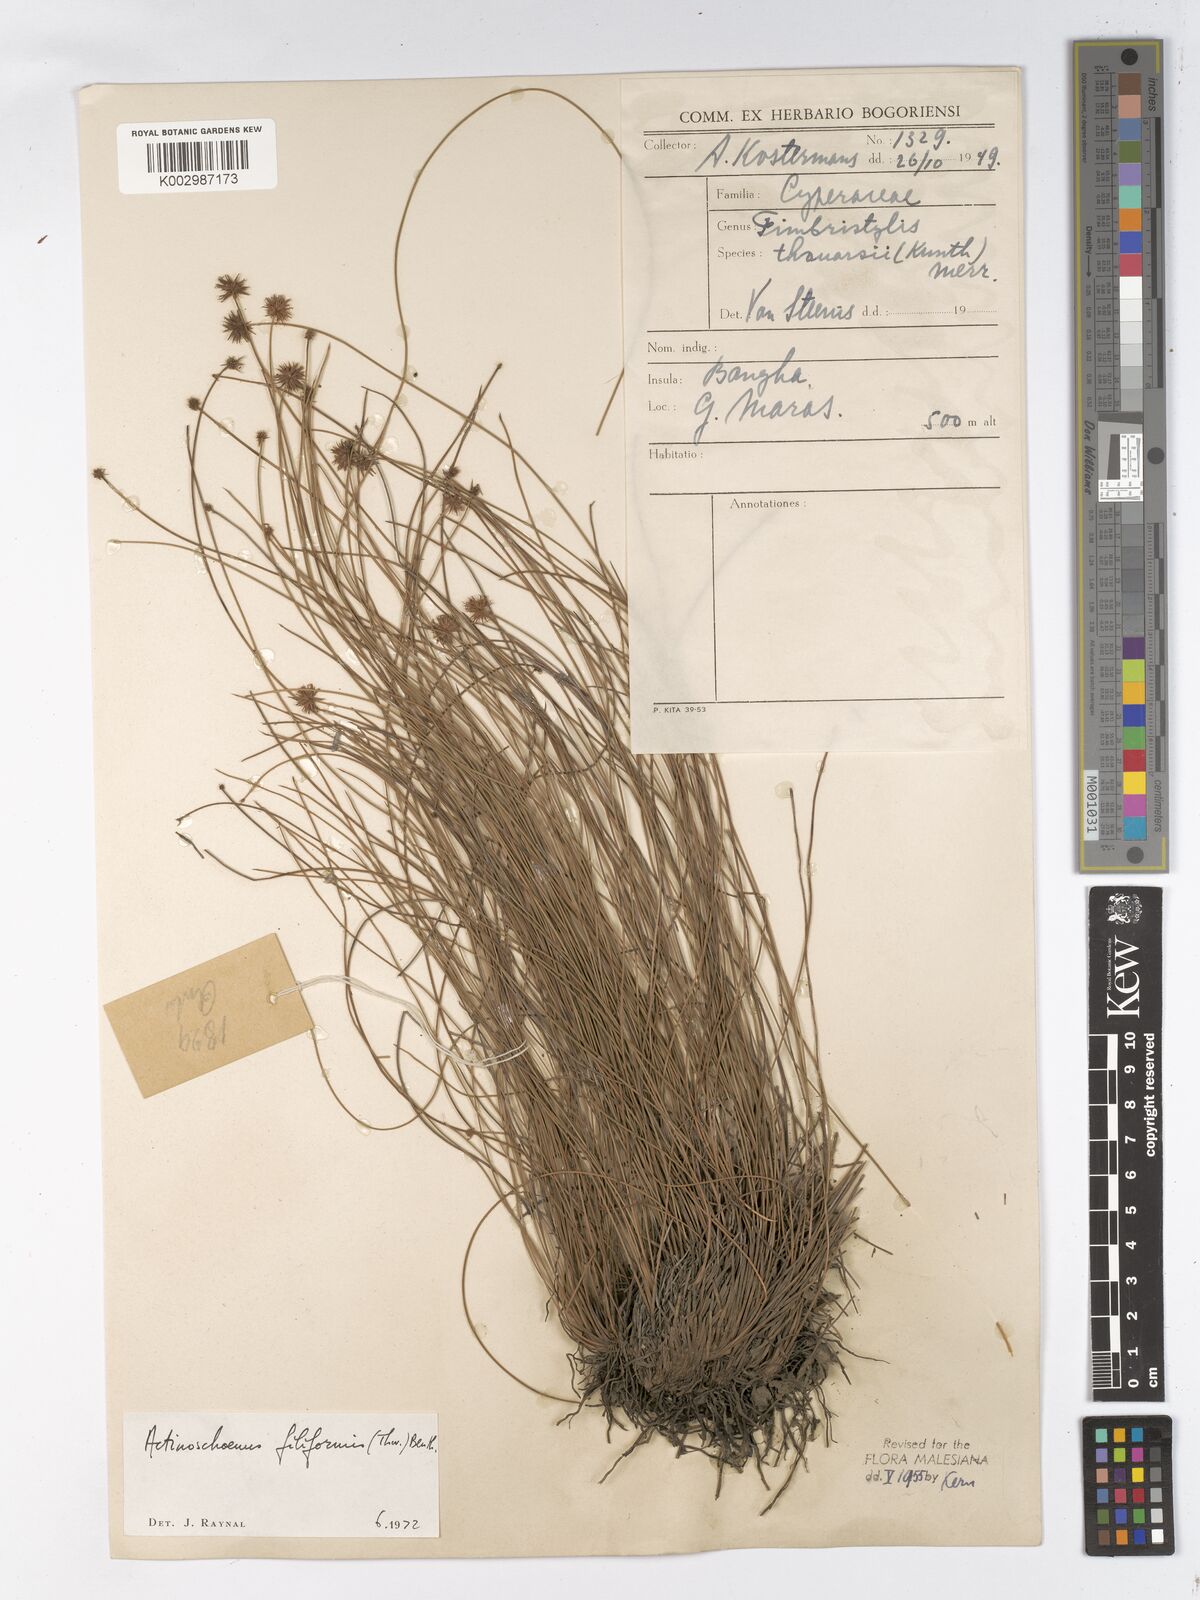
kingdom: Plantae
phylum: Tracheophyta
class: Liliopsida
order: Poales
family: Cyperaceae
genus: Actinoschoenus
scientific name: Actinoschoenus aphyllus
